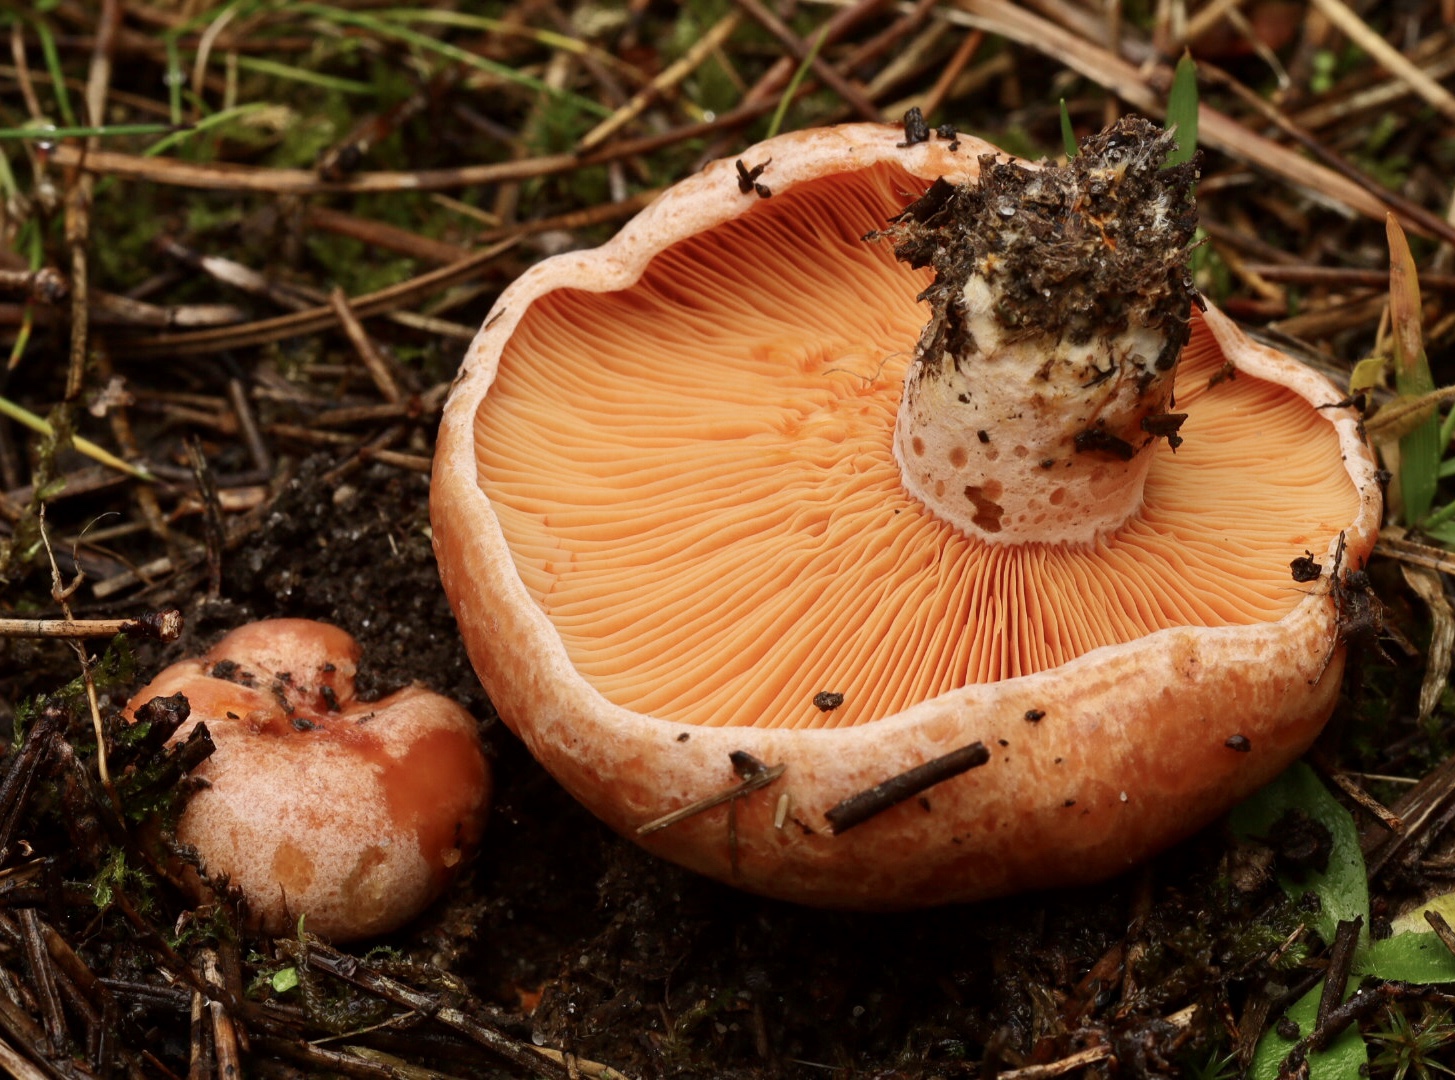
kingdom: Fungi
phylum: Basidiomycota
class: Agaricomycetes
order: Russulales
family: Russulaceae
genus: Lactarius
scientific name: Lactarius deliciosus
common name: velsmagende mælkehat
